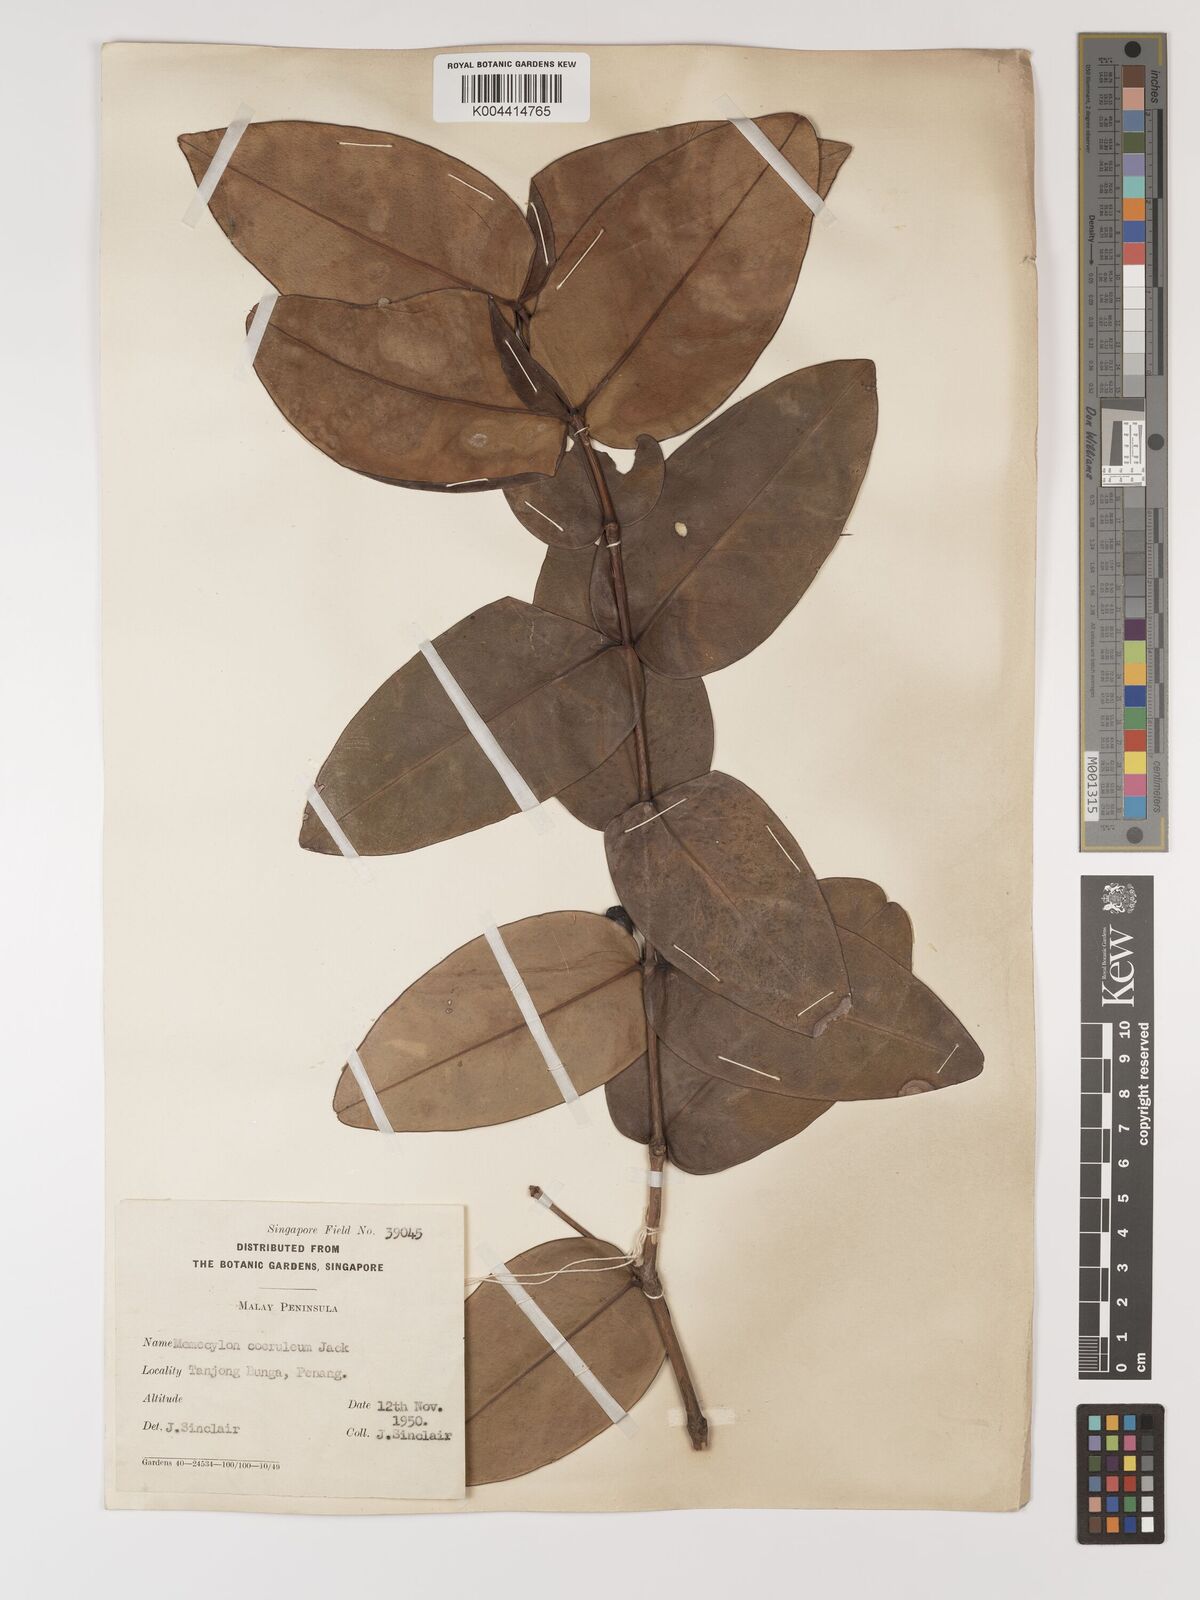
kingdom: Plantae
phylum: Tracheophyta
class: Magnoliopsida
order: Myrtales
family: Melastomataceae
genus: Memecylon
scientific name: Memecylon
